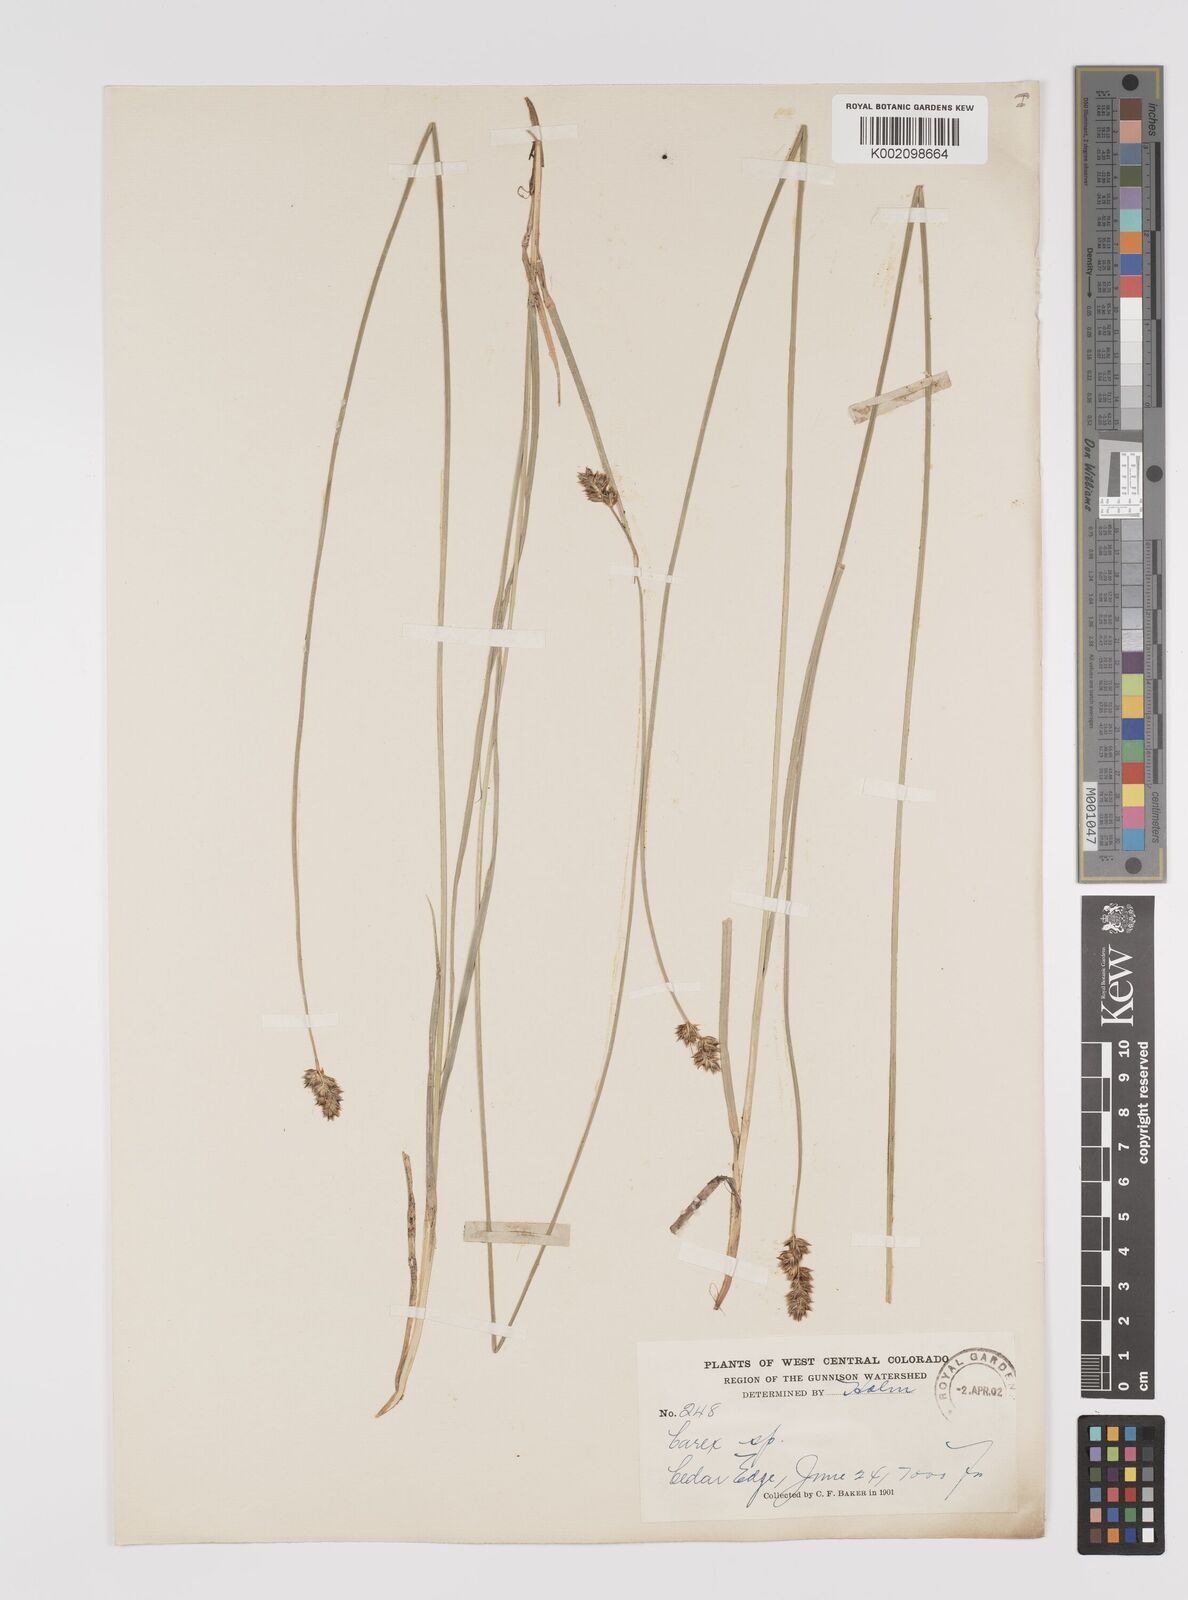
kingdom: Plantae
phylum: Tracheophyta
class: Liliopsida
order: Poales
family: Cyperaceae
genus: Carex
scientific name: Carex hookeriana
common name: Hooker's sedge
